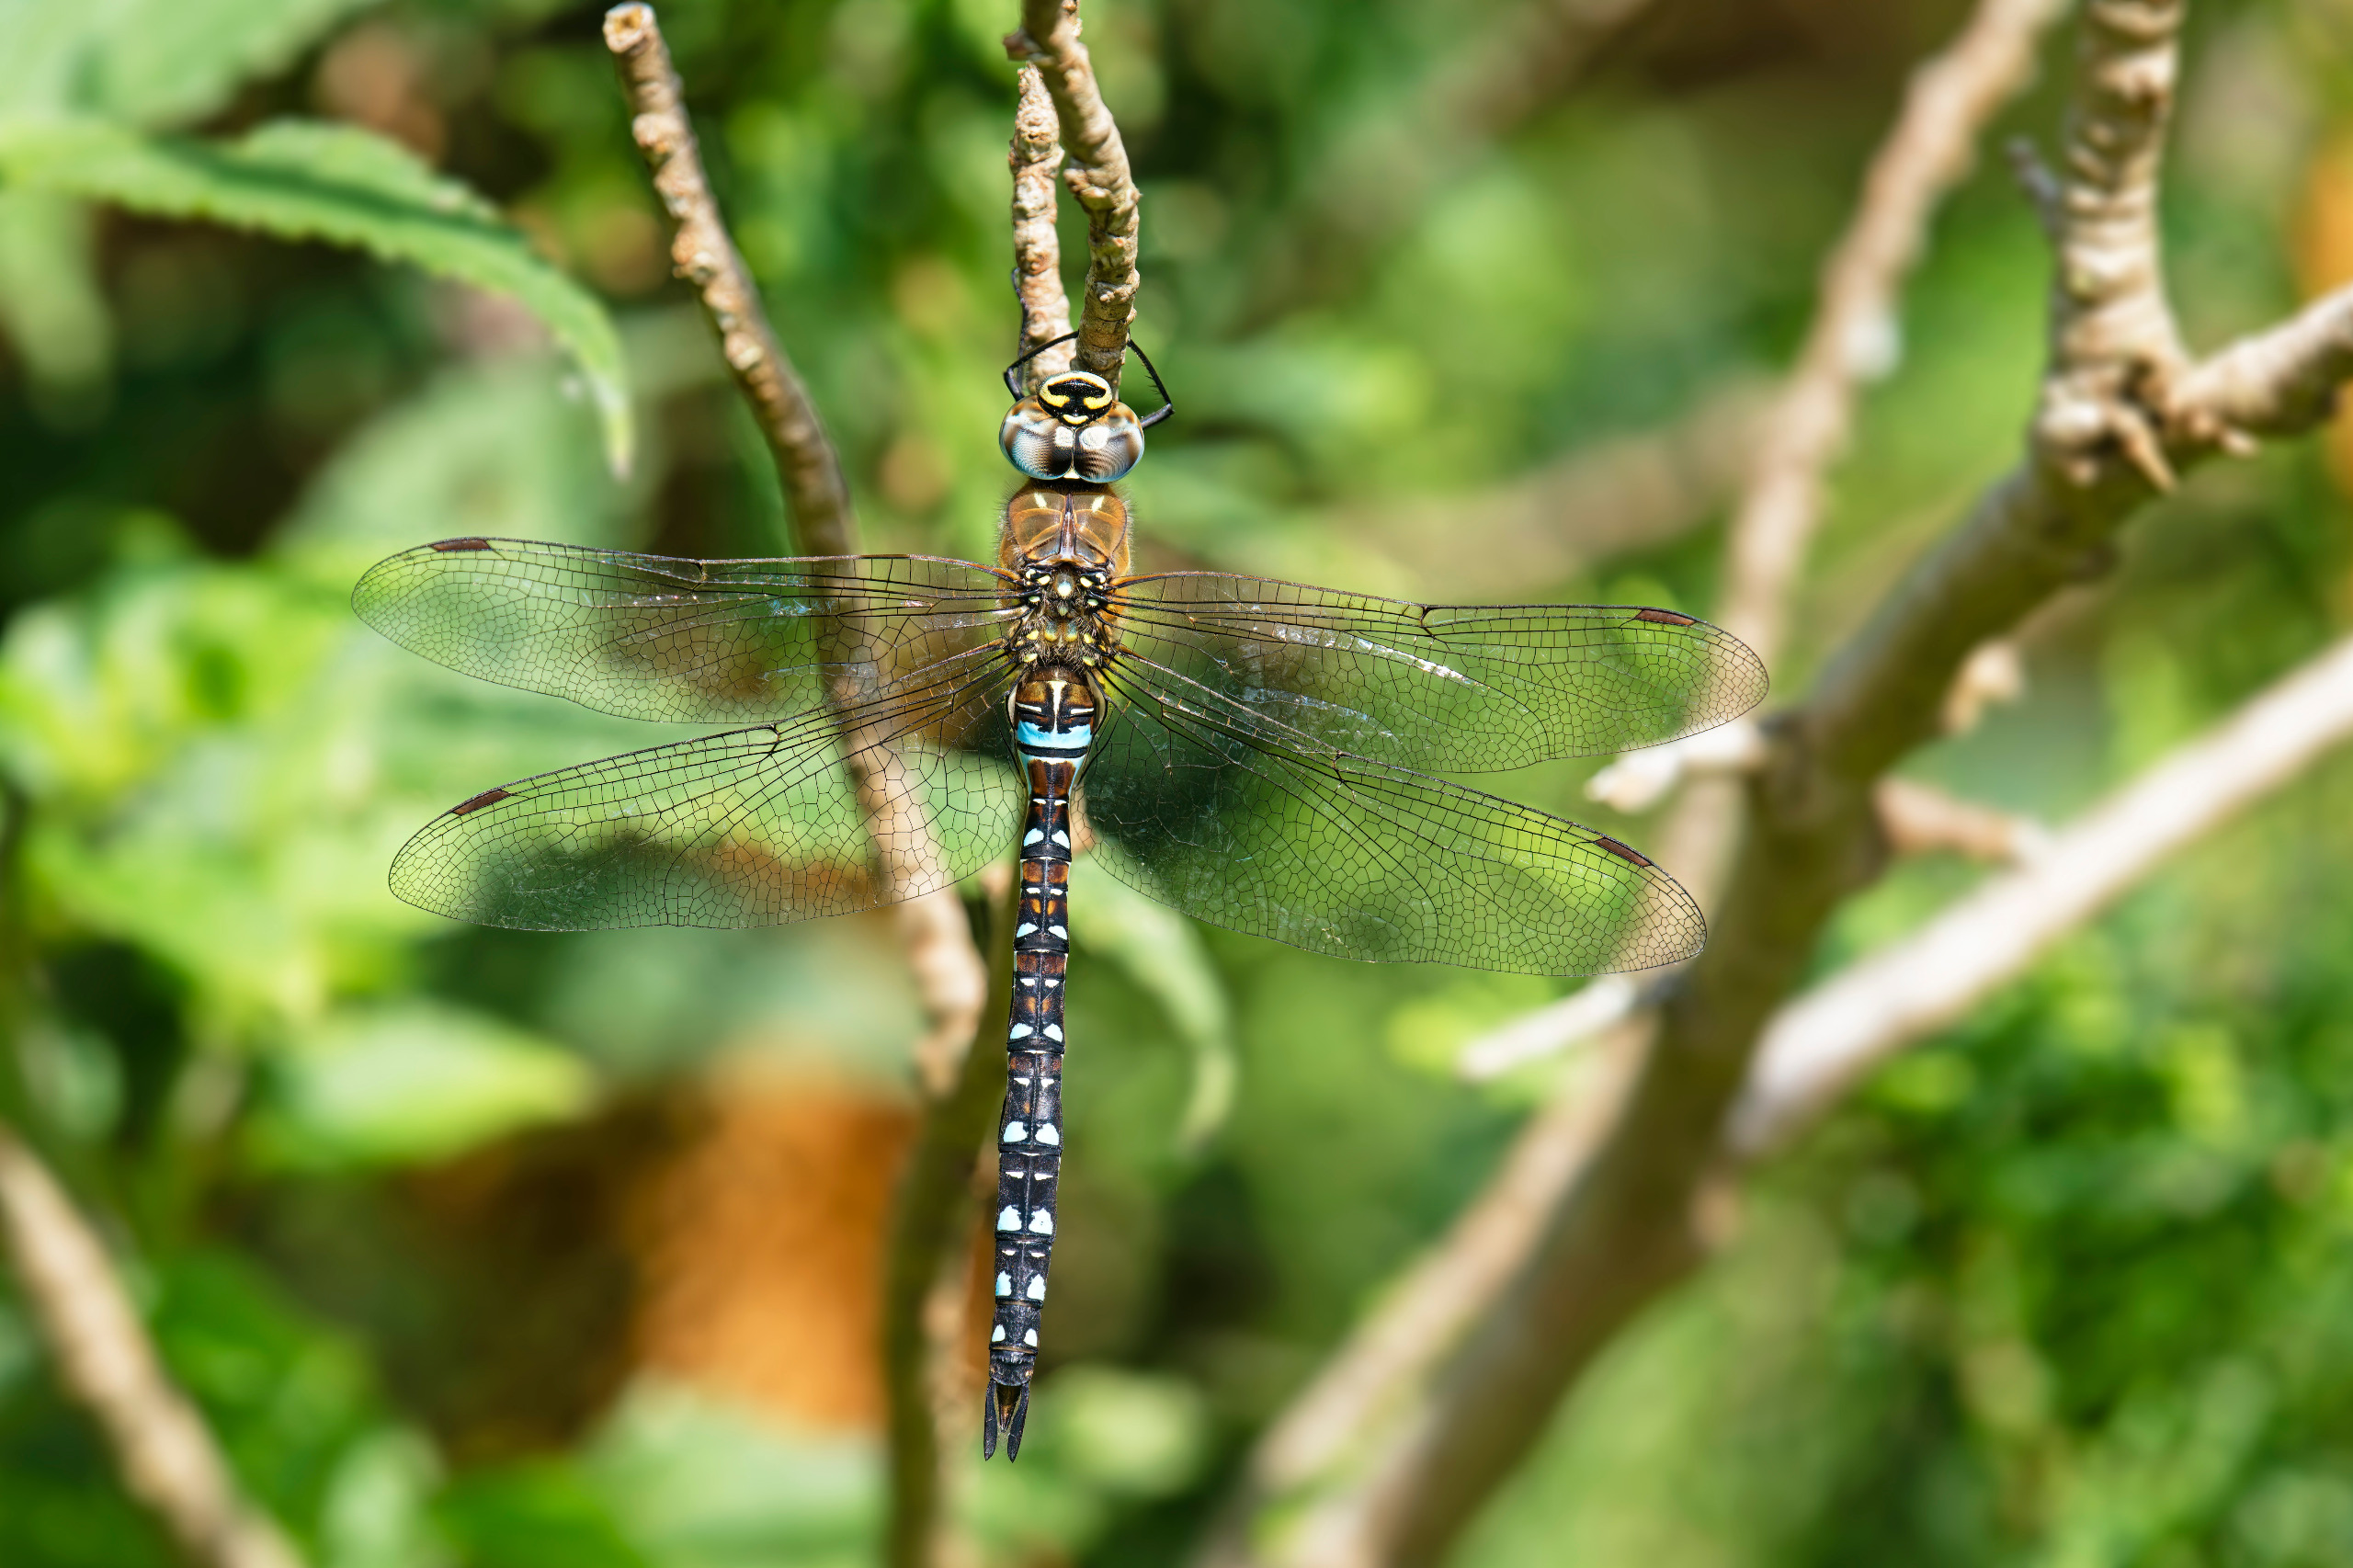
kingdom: Animalia
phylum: Arthropoda
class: Insecta
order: Odonata
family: Aeshnidae
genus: Aeshna
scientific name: Aeshna mixta
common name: Efterårs-mosaikguldsmed
